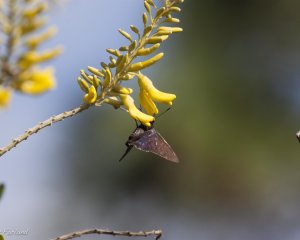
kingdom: Animalia
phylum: Arthropoda
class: Insecta
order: Lepidoptera
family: Hesperiidae
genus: Phocides
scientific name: Phocides pigmalion
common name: Mangrove Skipper
